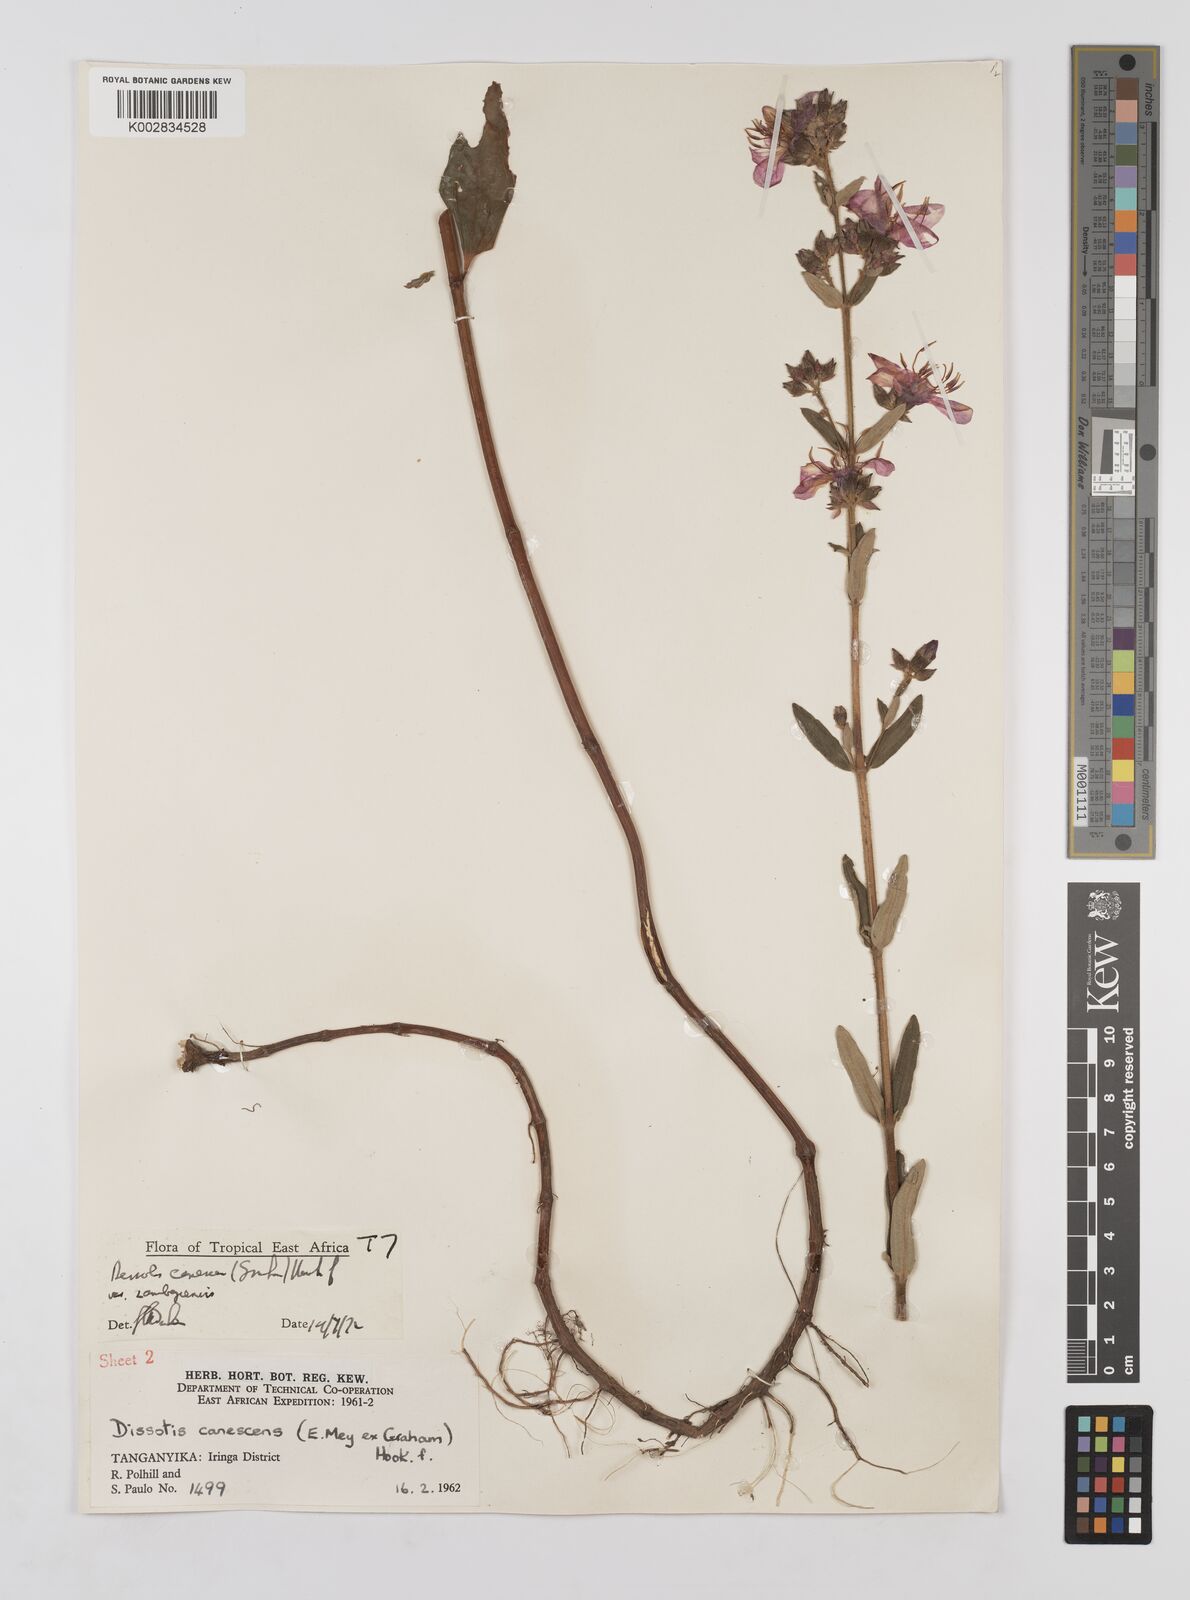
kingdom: Plantae
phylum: Tracheophyta
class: Magnoliopsida
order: Myrtales
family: Melastomataceae
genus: Argyrella
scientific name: Argyrella canescens
